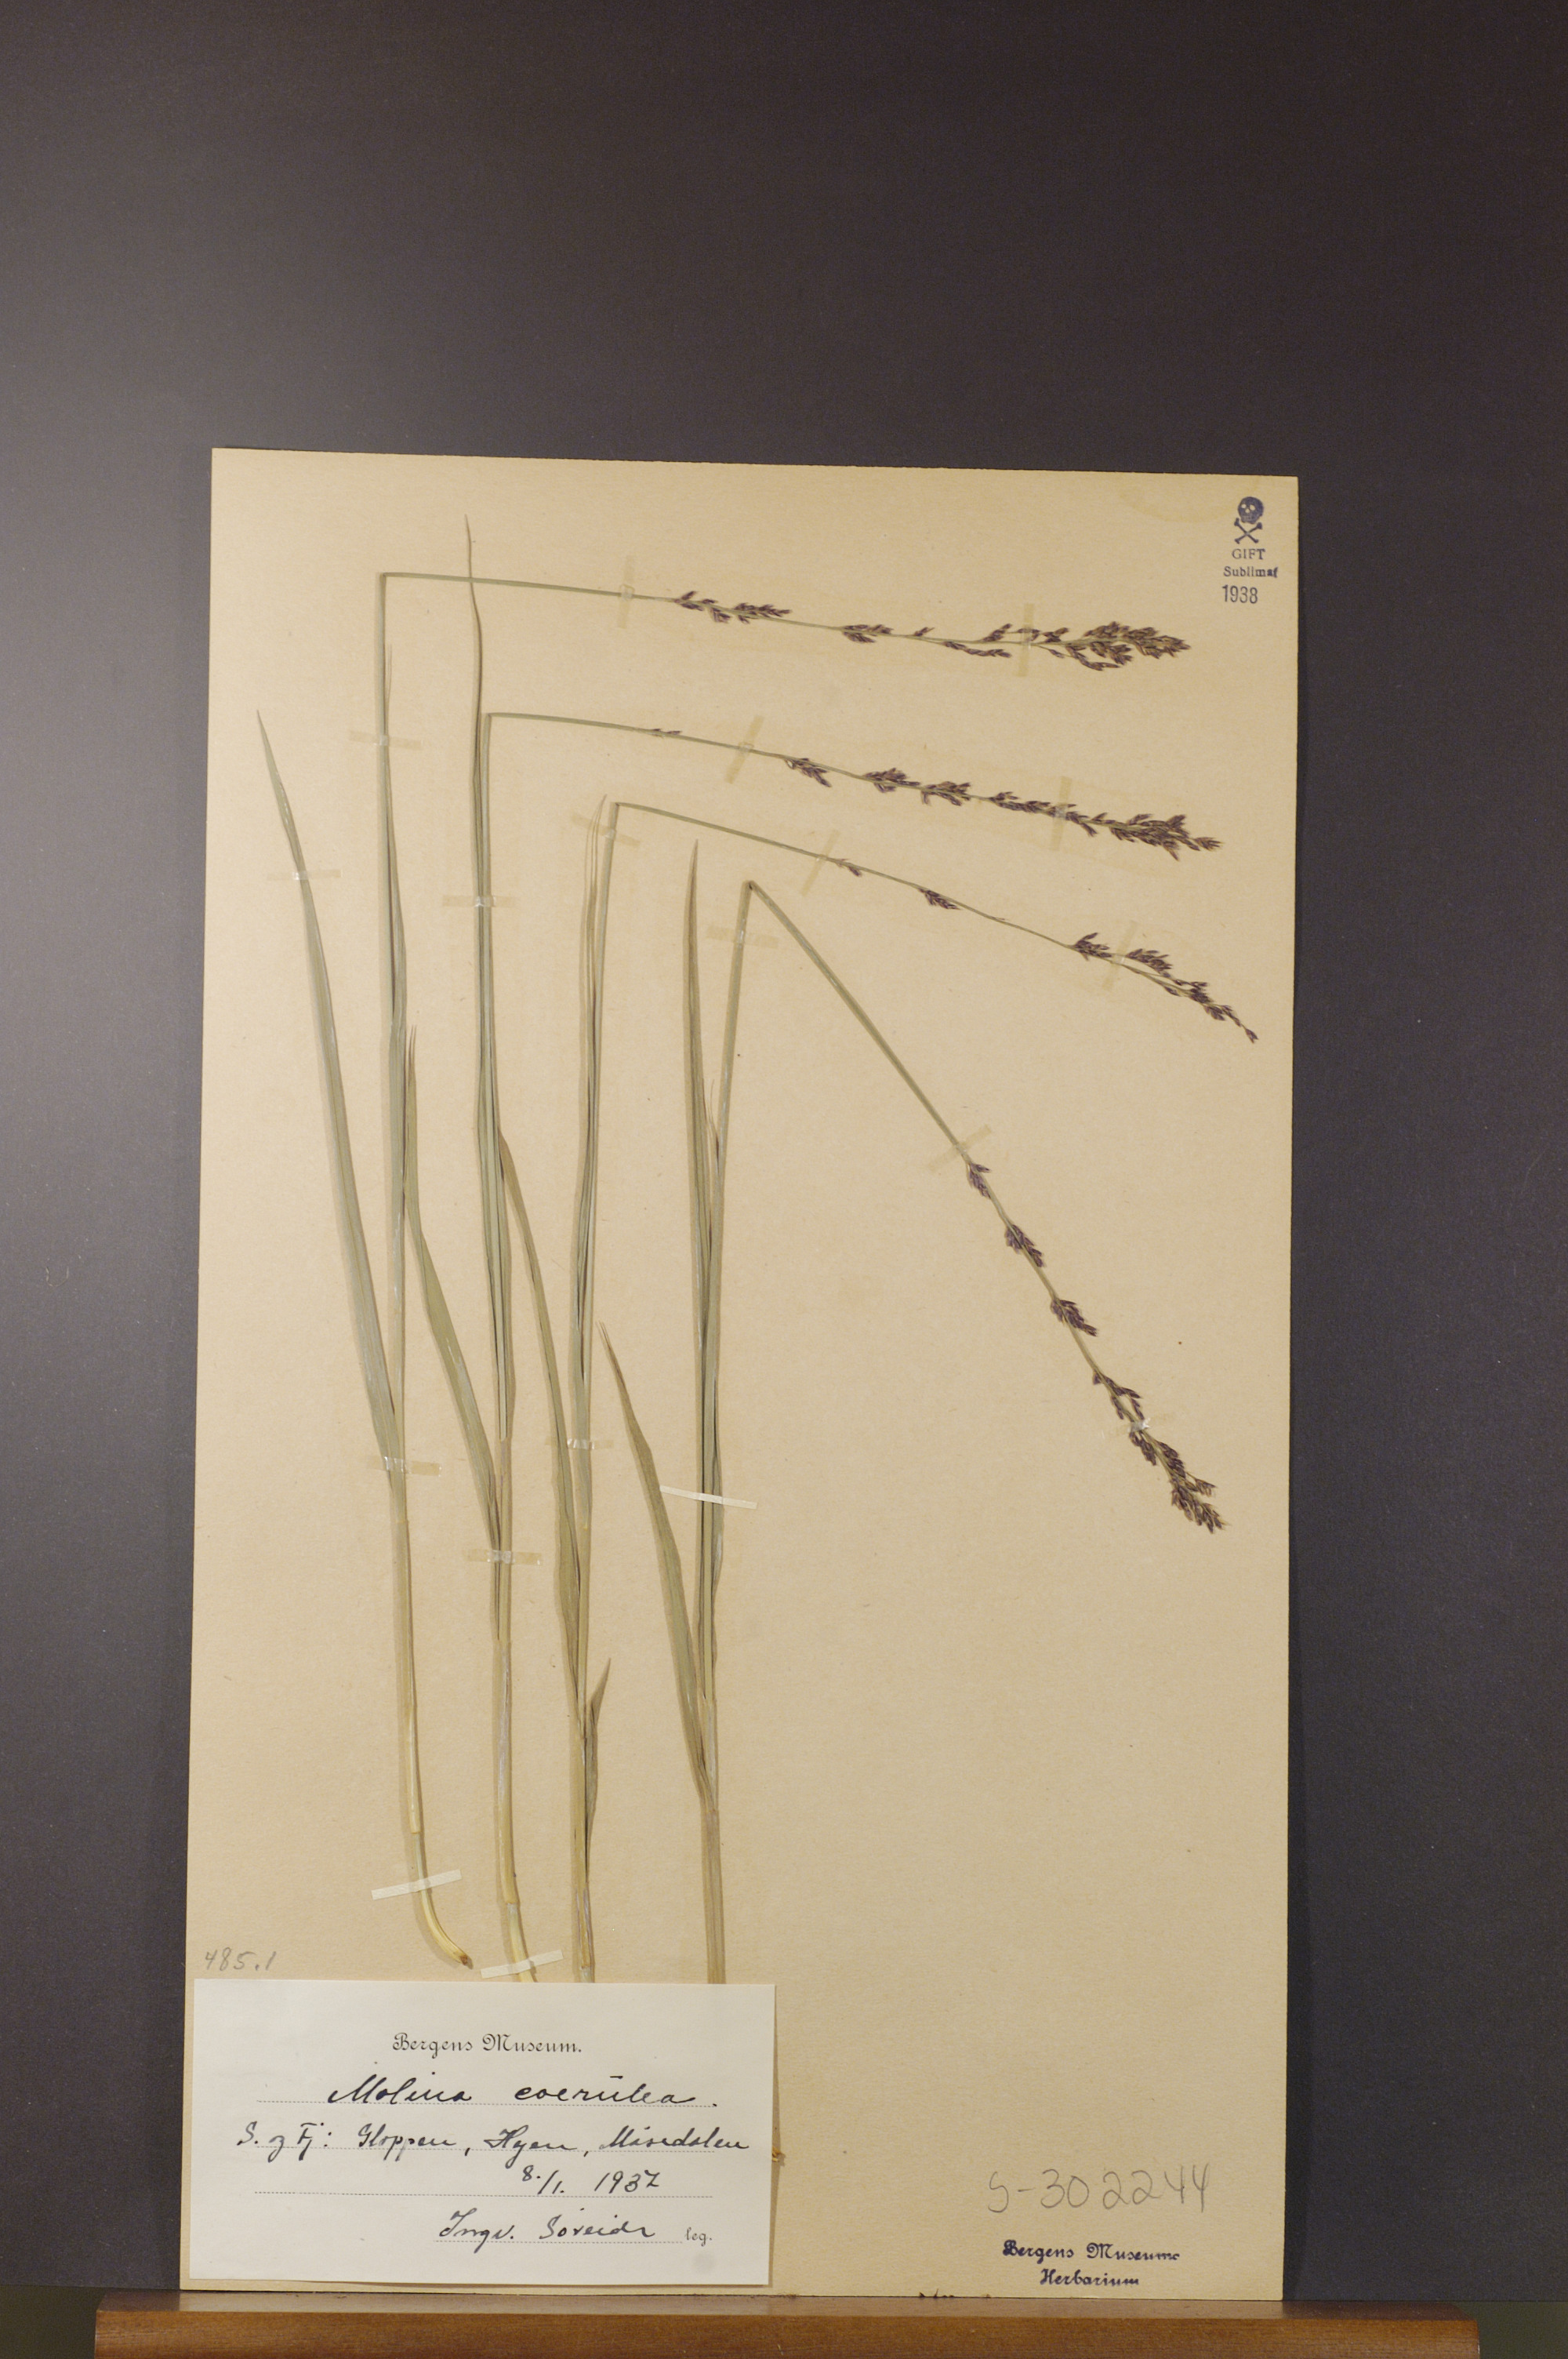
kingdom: Plantae
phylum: Tracheophyta
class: Liliopsida
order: Poales
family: Poaceae
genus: Molinia
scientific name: Molinia caerulea
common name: Purple moor-grass
